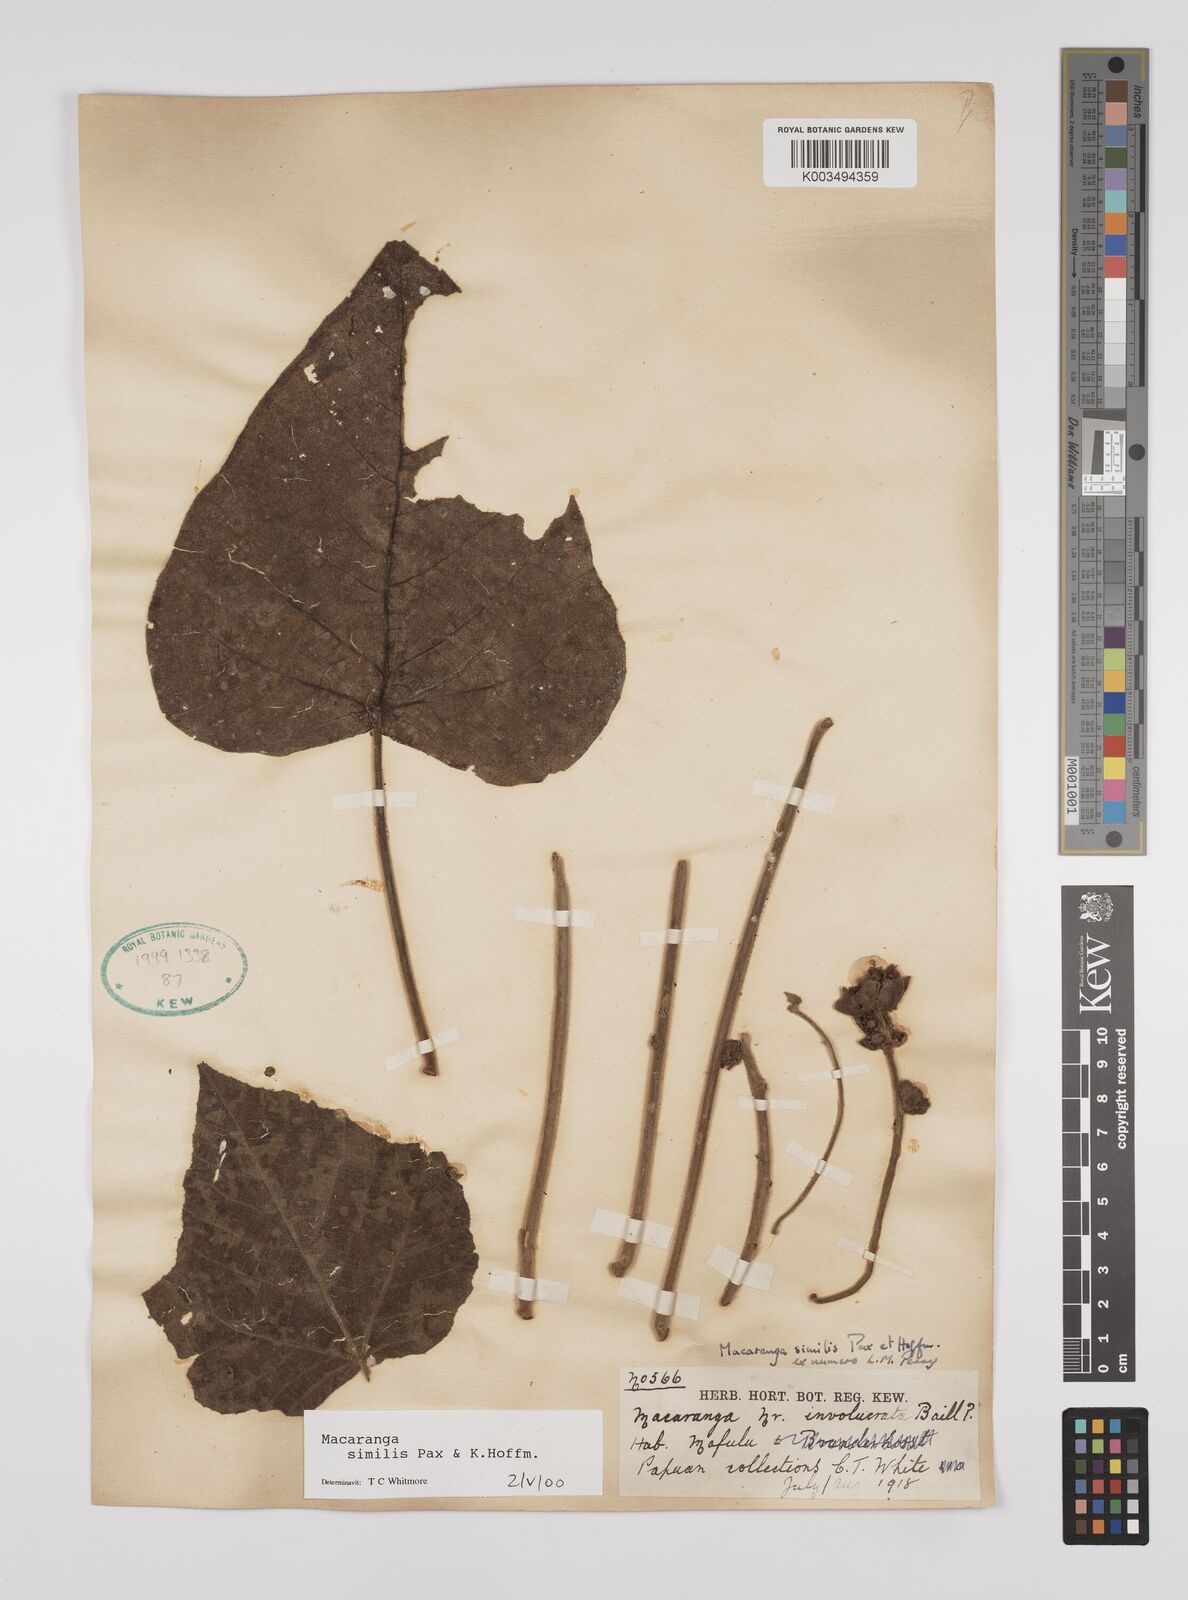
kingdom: Plantae
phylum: Tracheophyta
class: Magnoliopsida
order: Malpighiales
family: Euphorbiaceae
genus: Macaranga
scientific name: Macaranga similis
